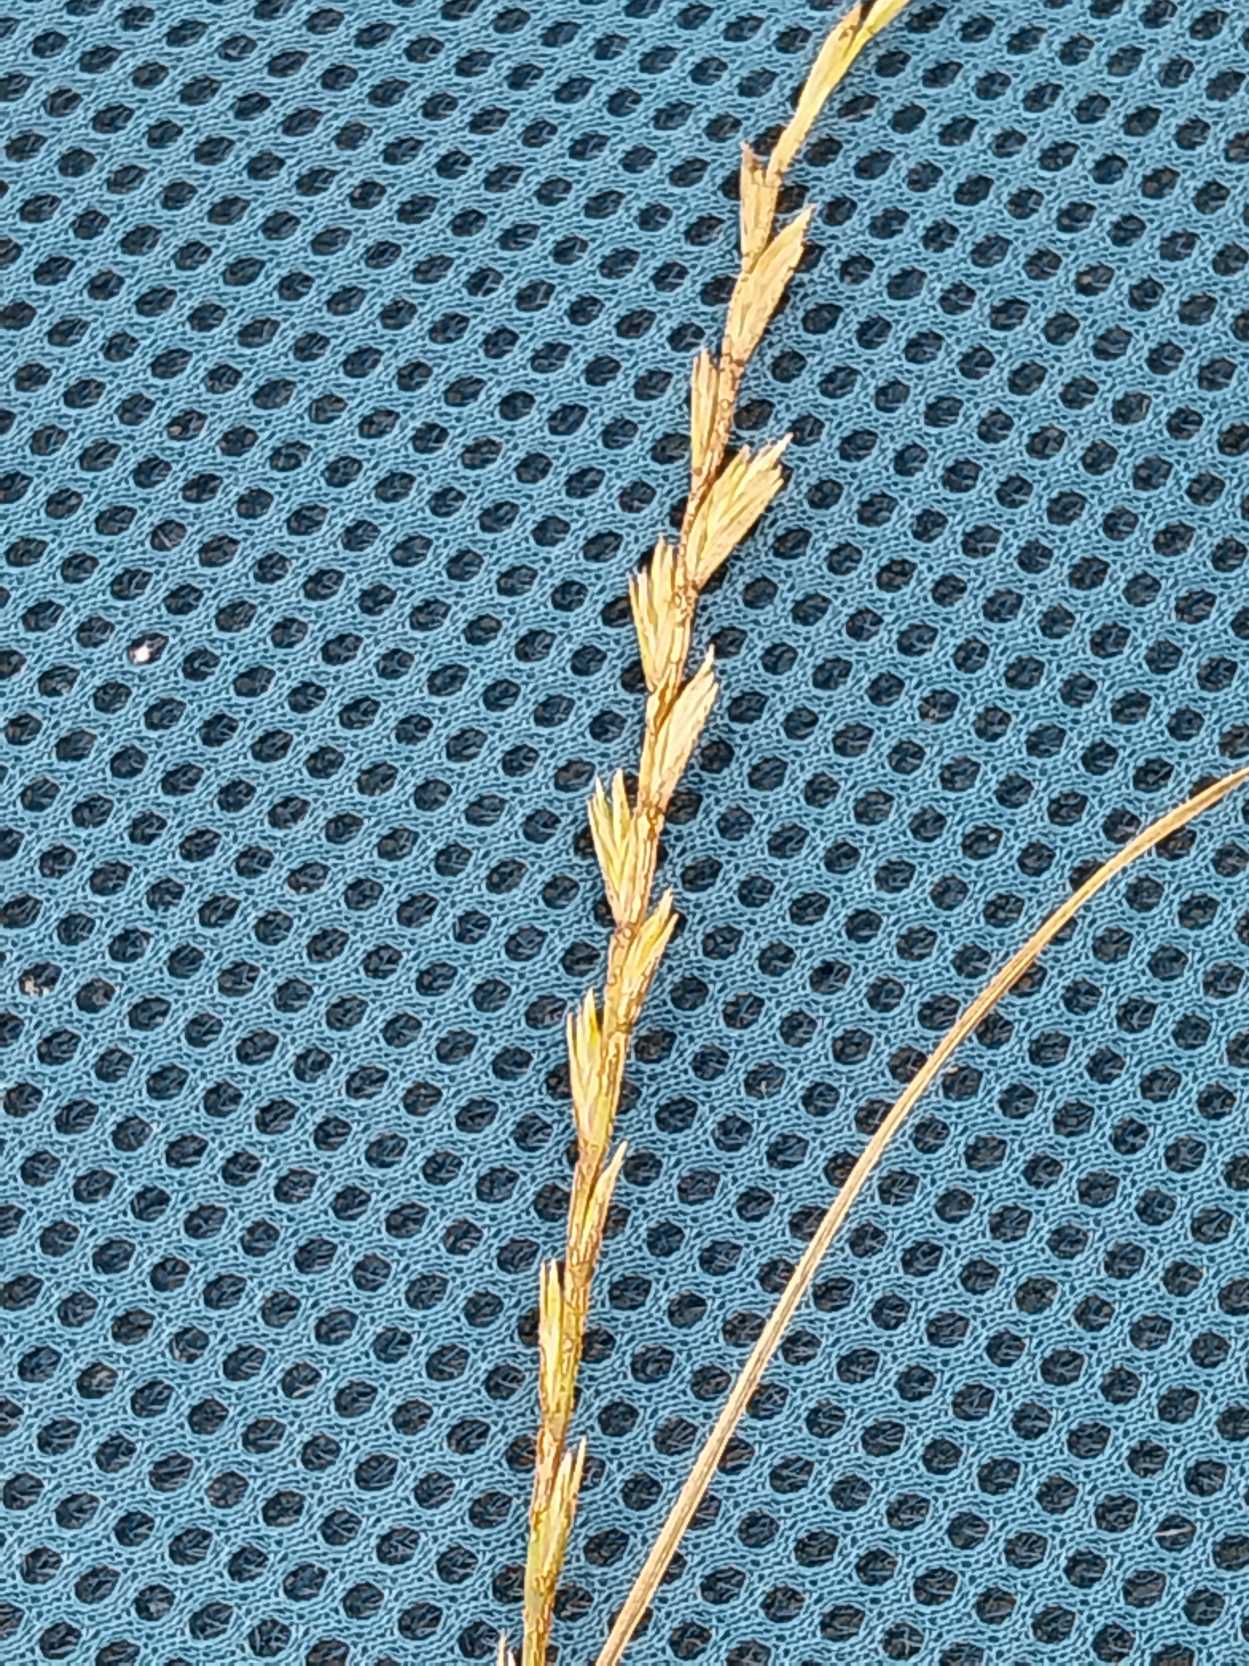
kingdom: Plantae
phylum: Tracheophyta
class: Liliopsida
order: Poales
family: Poaceae
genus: Lolium
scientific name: Lolium perenne
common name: Almindelig rajgræs
